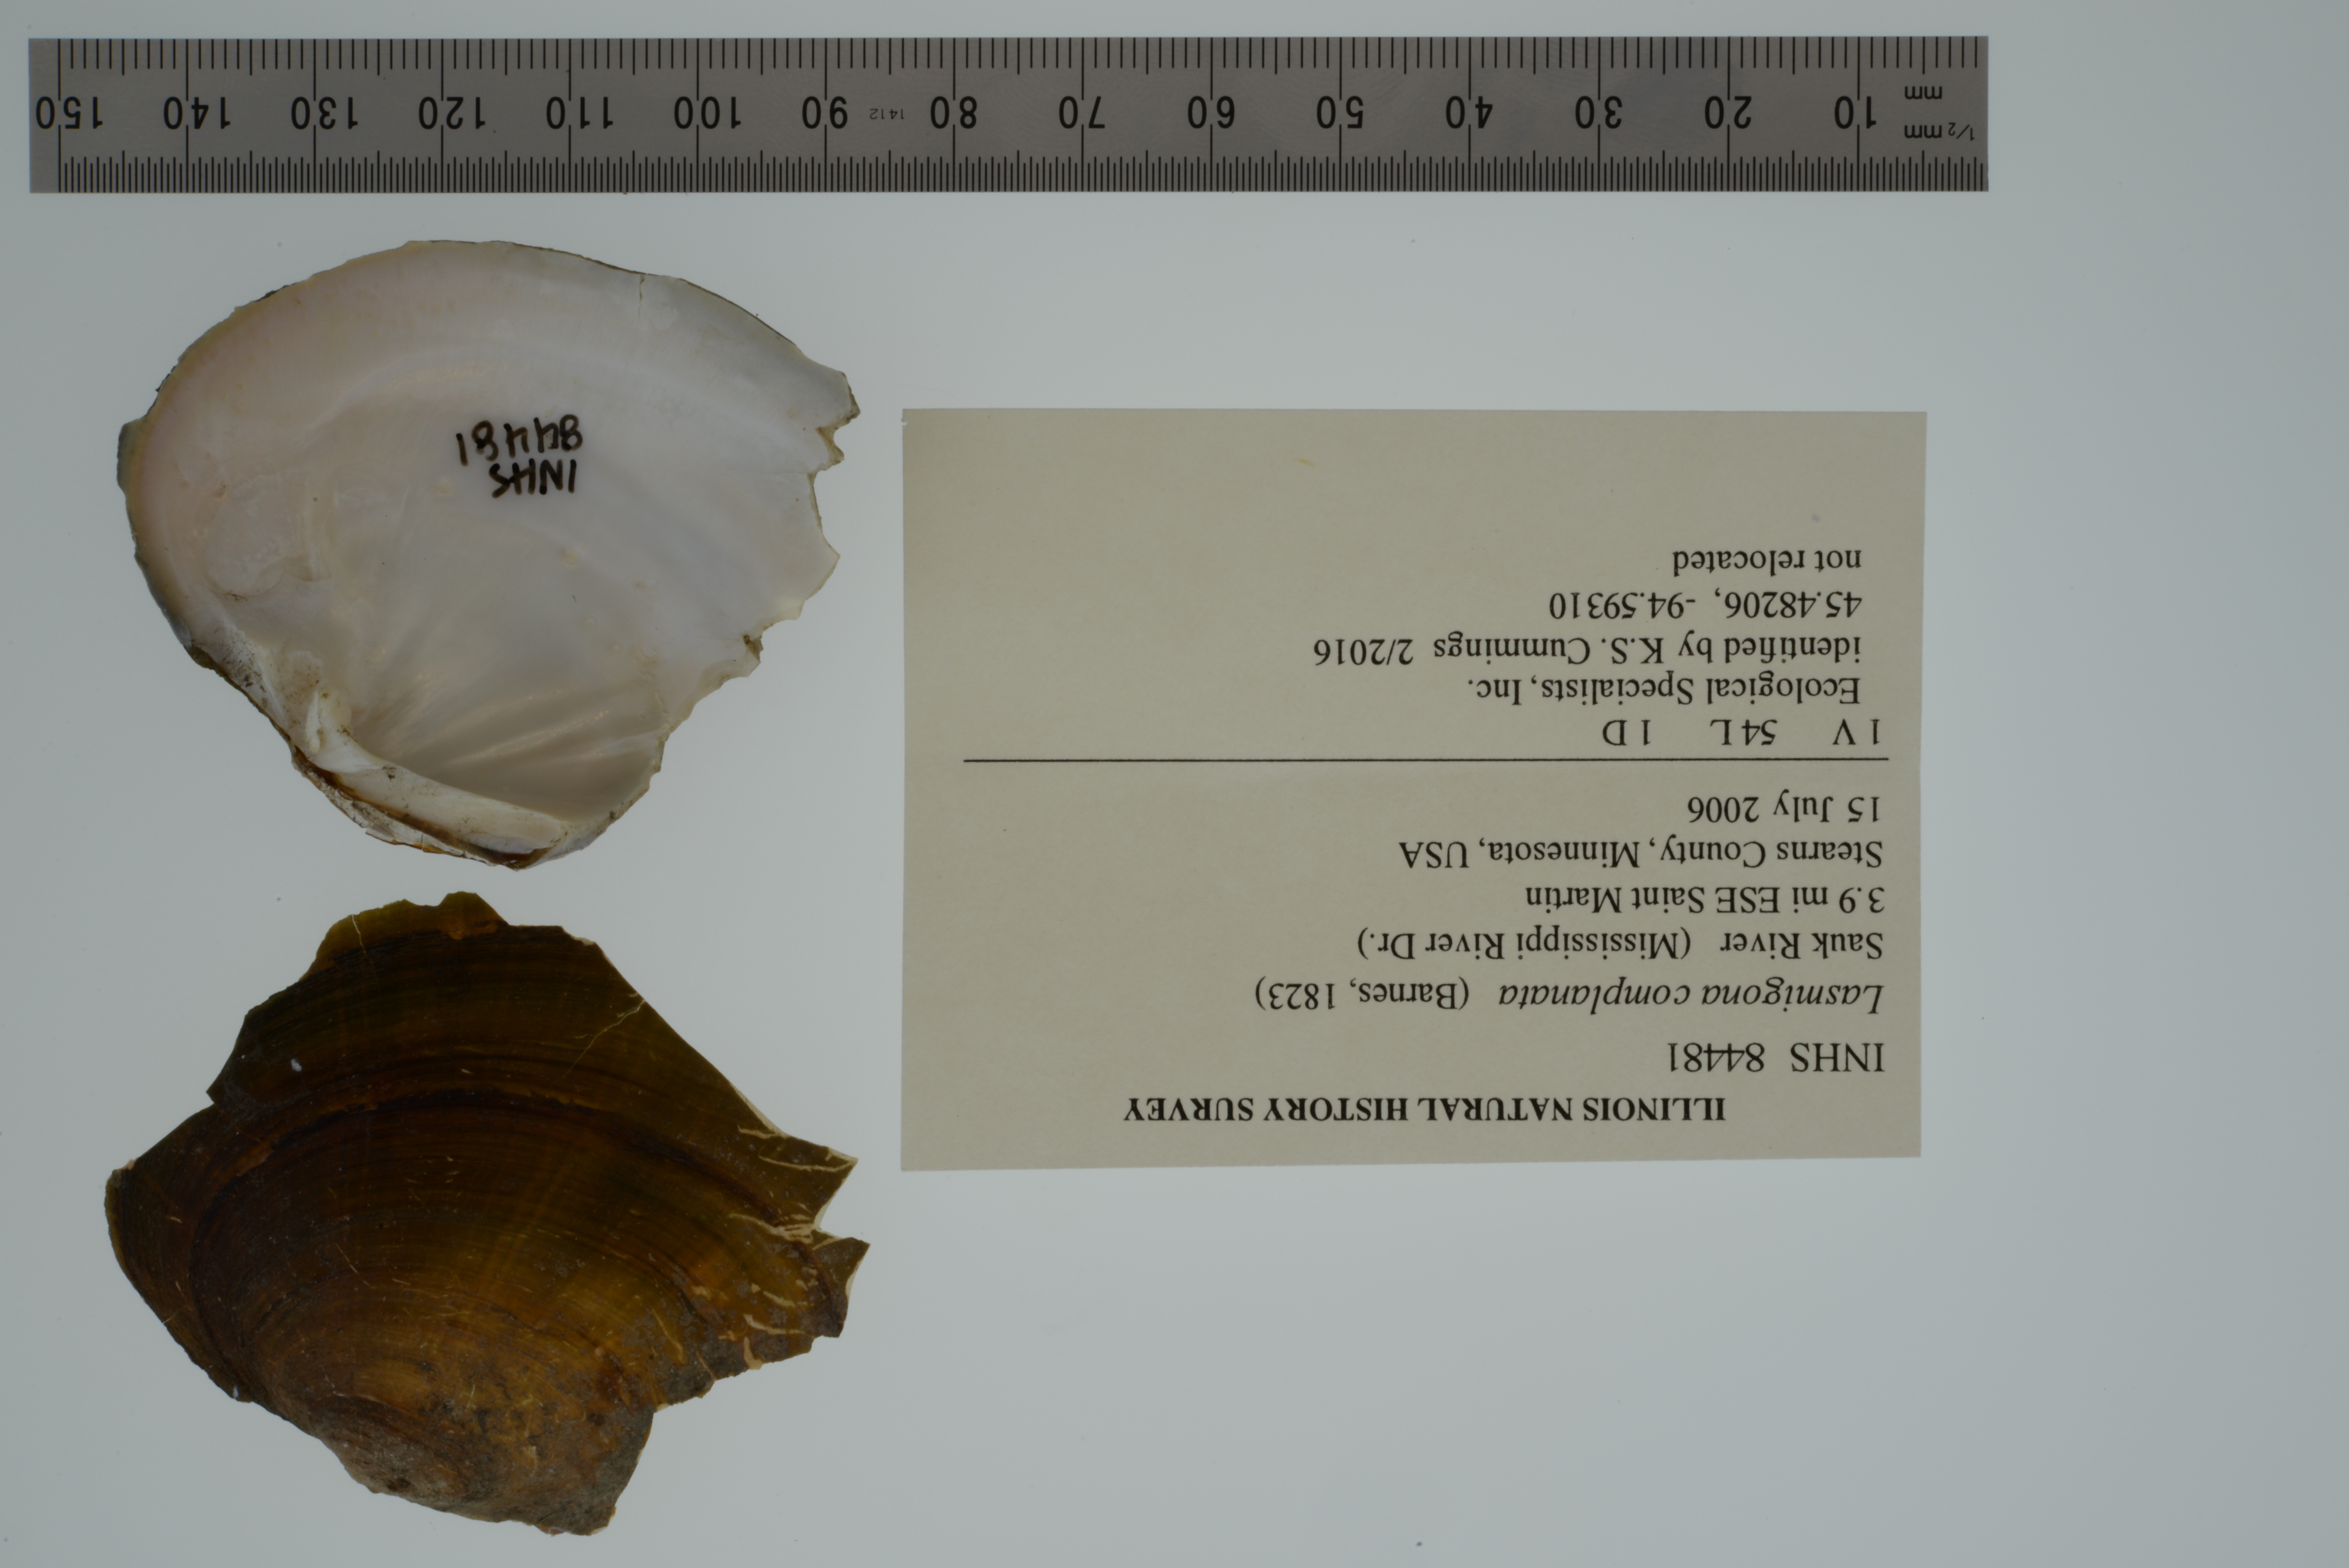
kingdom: Animalia
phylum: Mollusca
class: Bivalvia
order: Unionida
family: Unionidae
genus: Lasmigona
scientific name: Lasmigona complanata
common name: White heelsplitter
